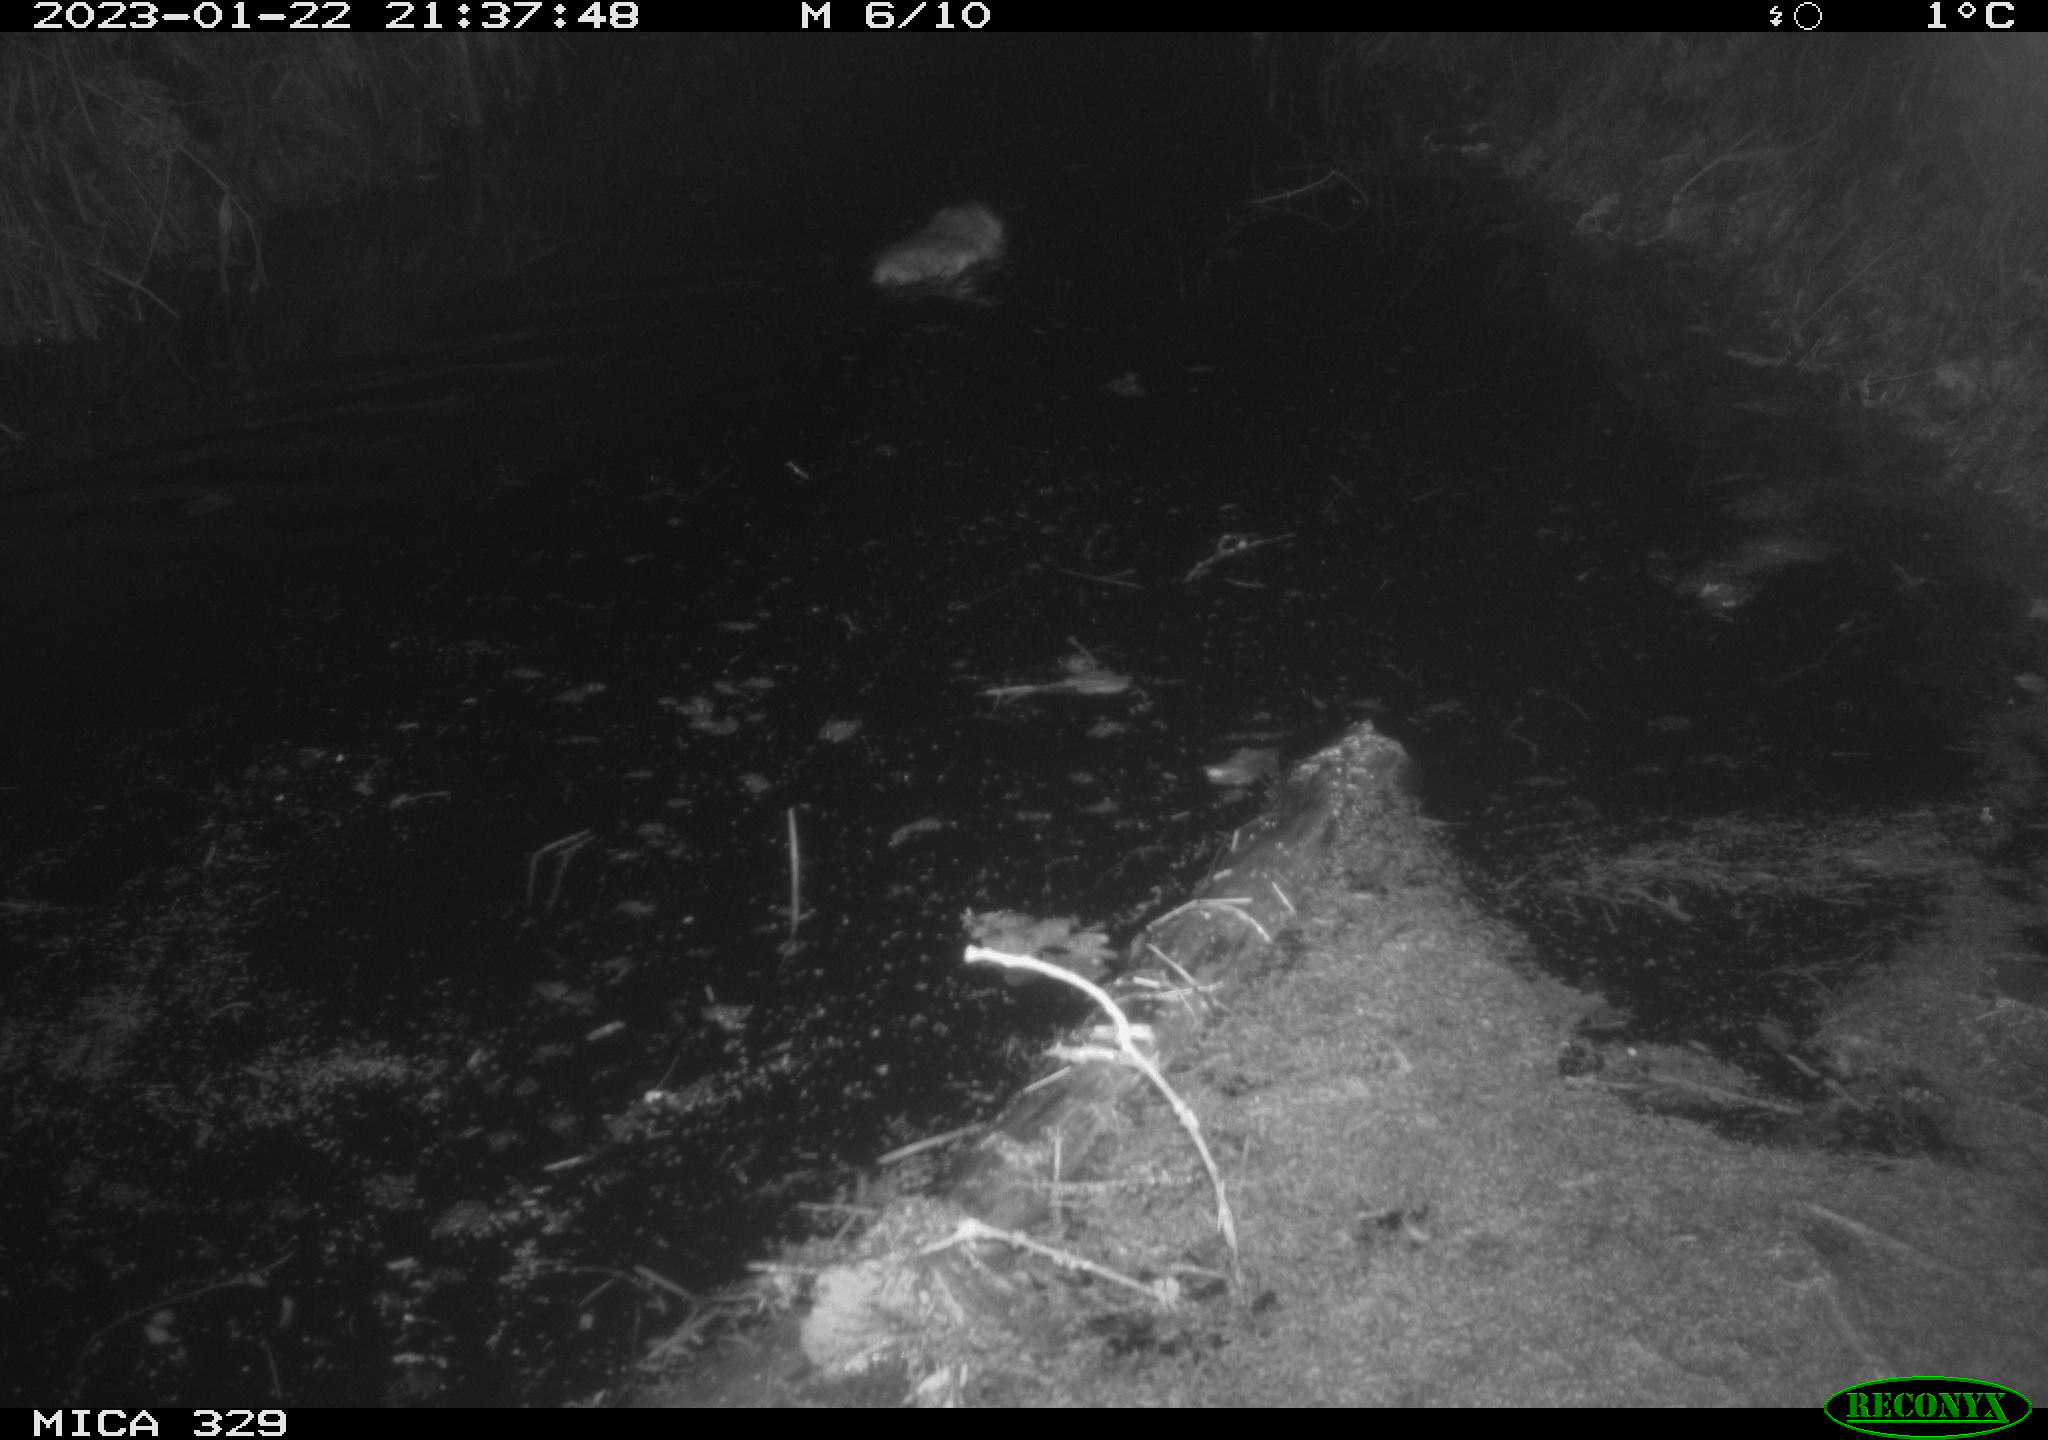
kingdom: Animalia
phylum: Chordata
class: Mammalia
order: Rodentia
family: Cricetidae
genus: Ondatra
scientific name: Ondatra zibethicus
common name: Muskrat
